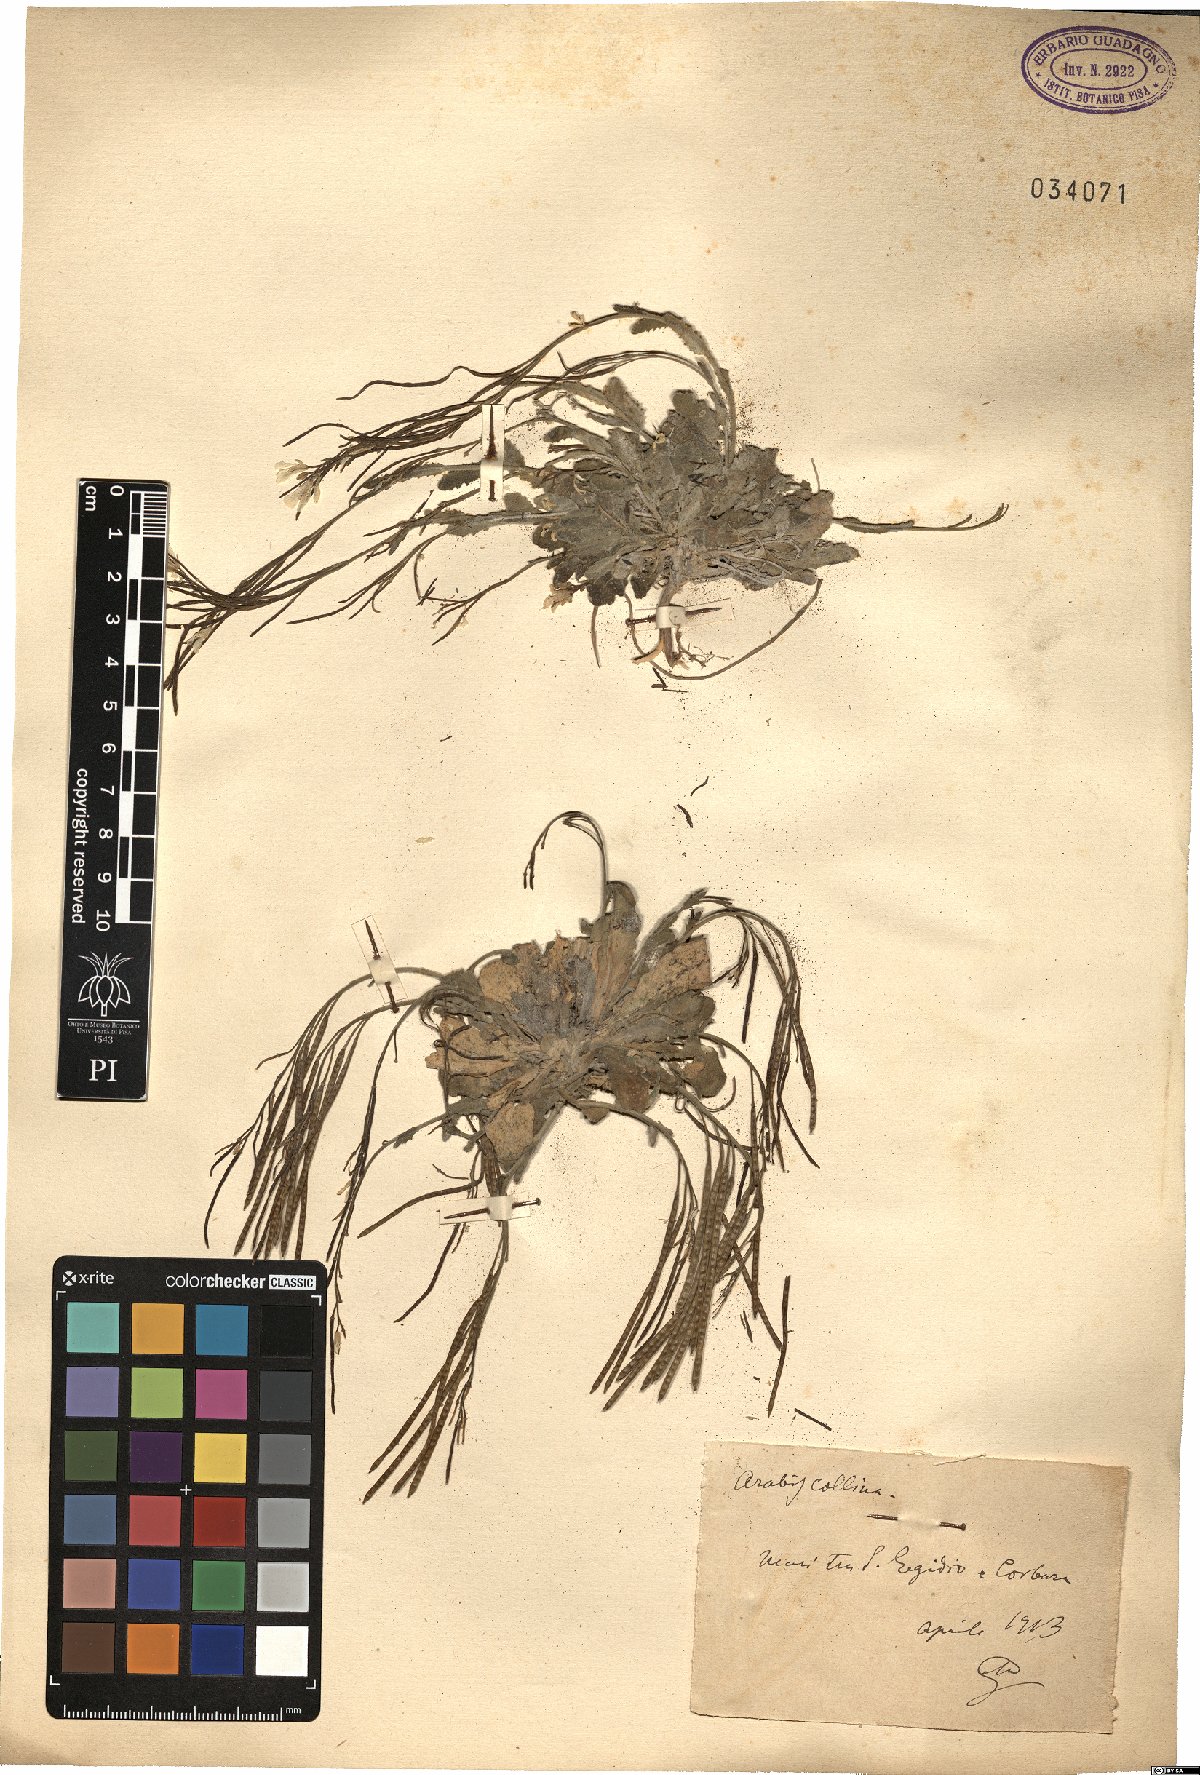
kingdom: Plantae
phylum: Tracheophyta
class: Magnoliopsida
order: Brassicales
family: Brassicaceae
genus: Arabis
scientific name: Arabis collina
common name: Rosy cress
